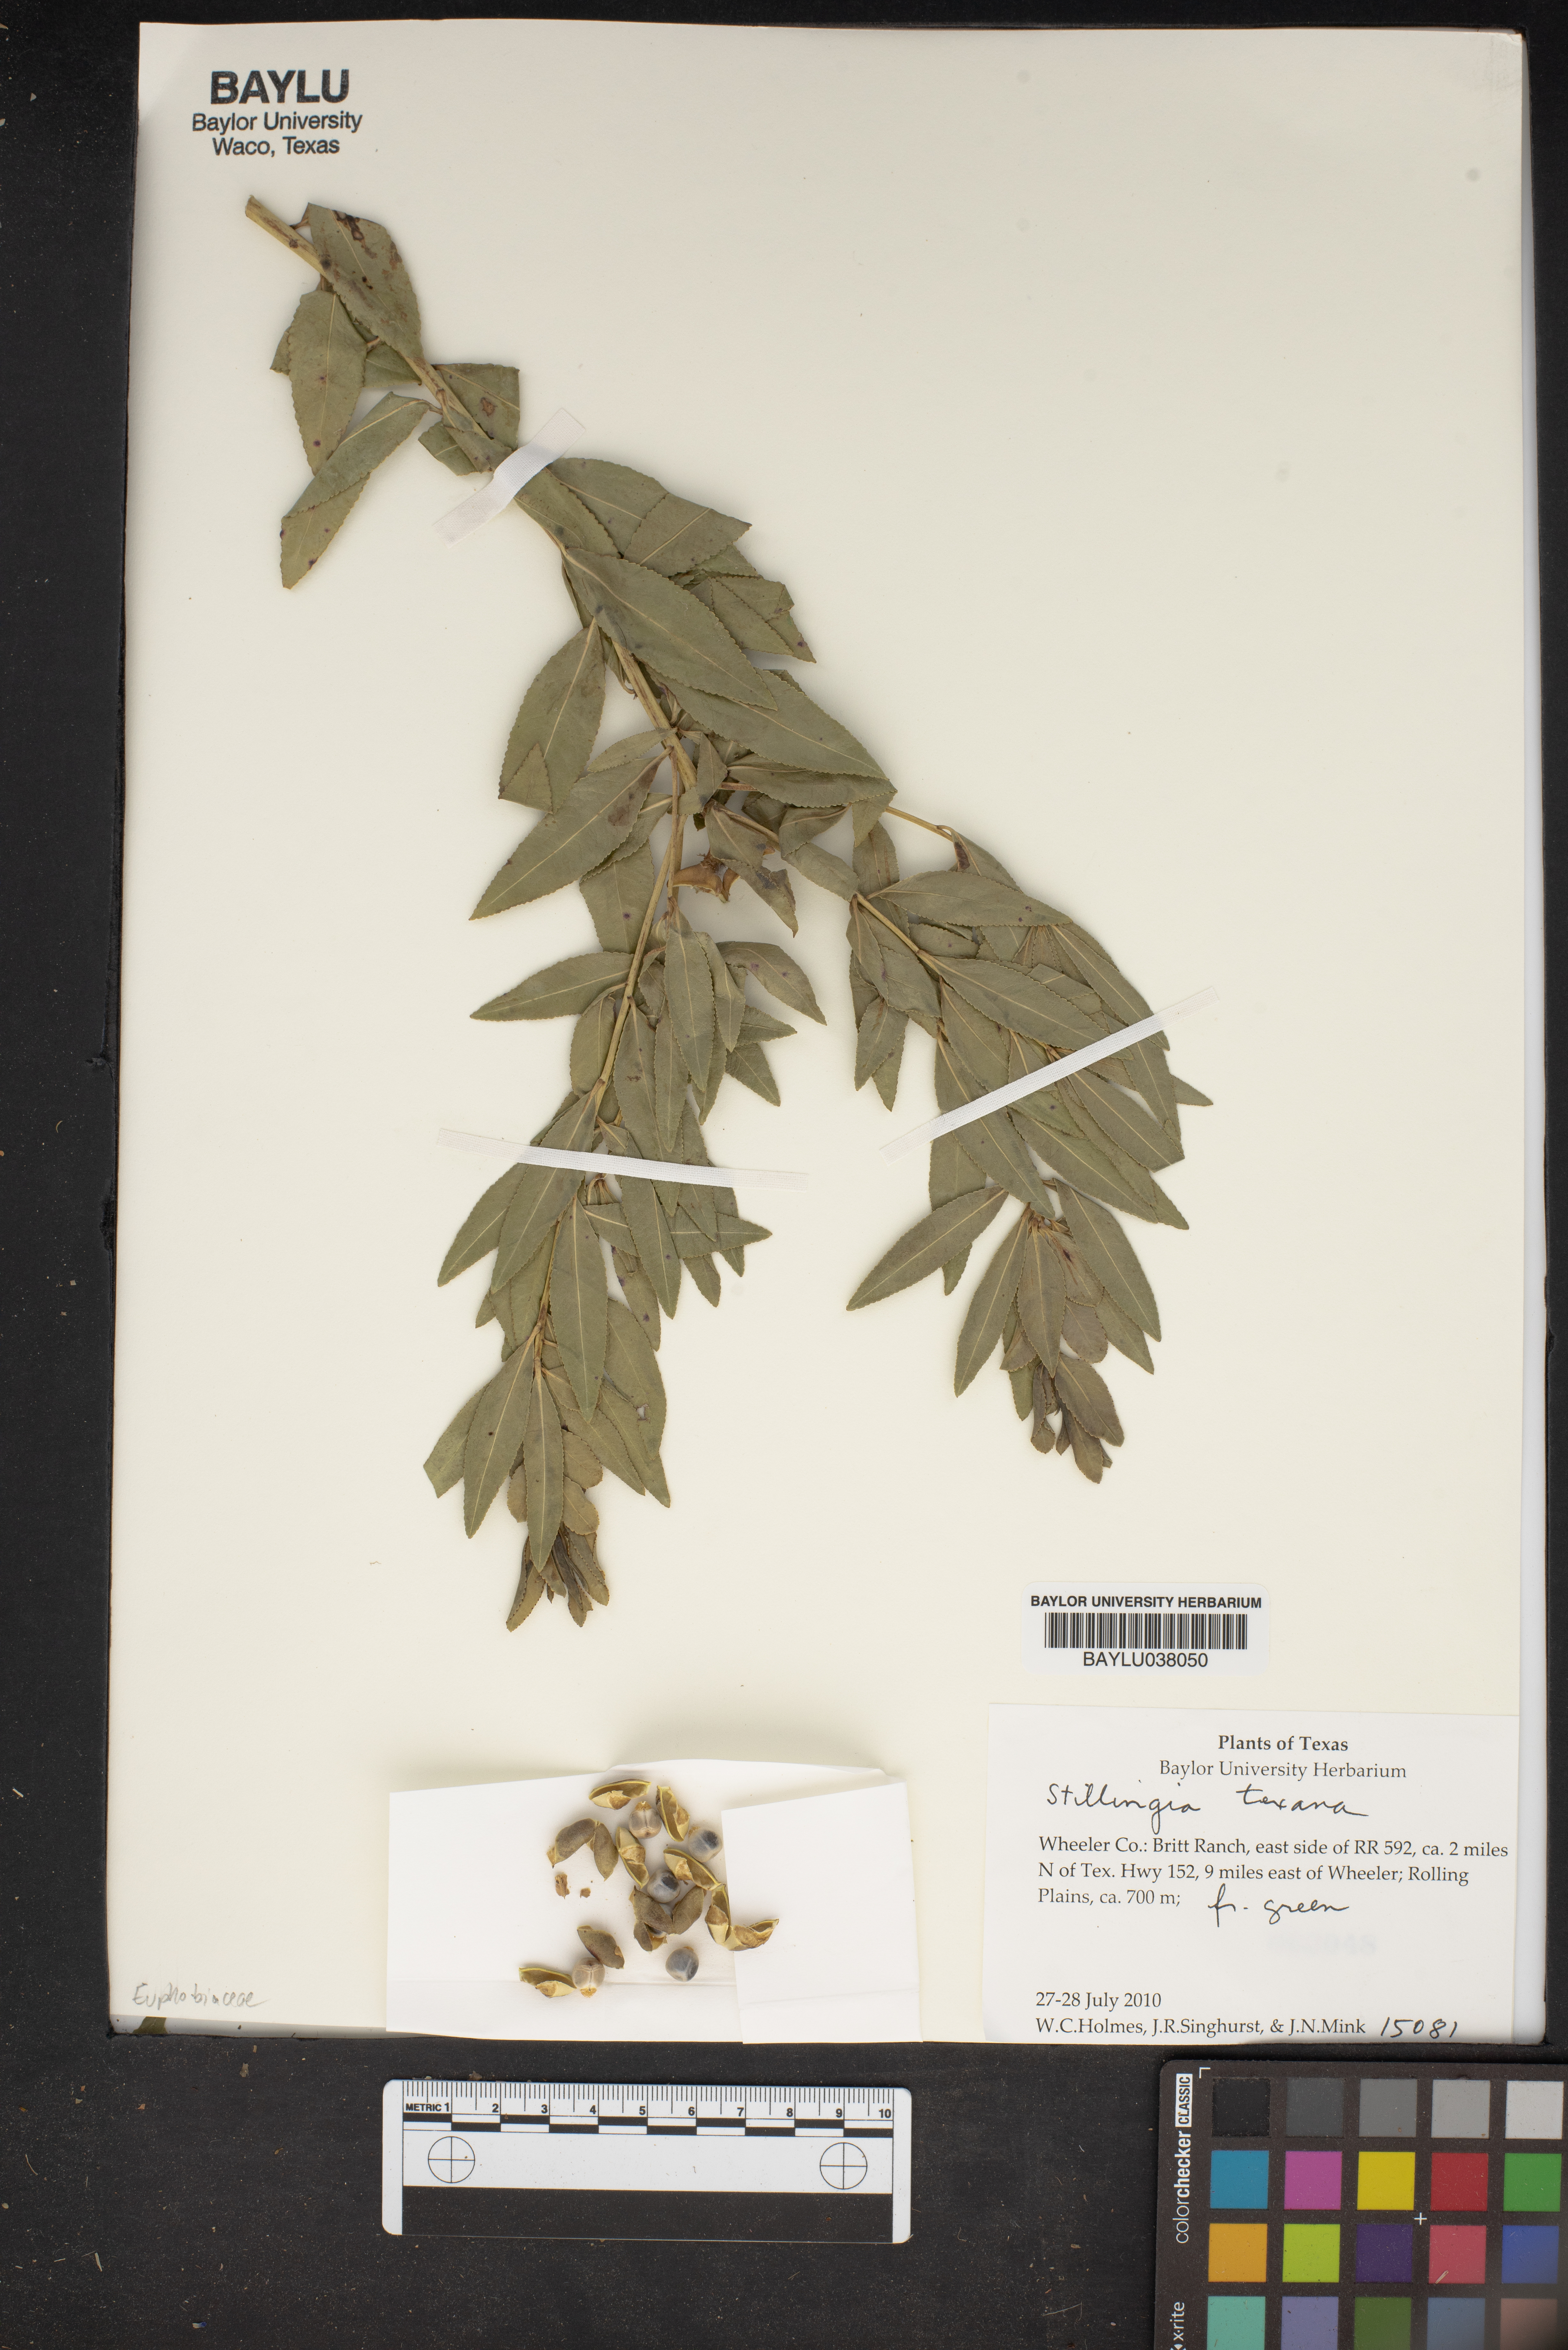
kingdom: Plantae
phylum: Tracheophyta
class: Magnoliopsida
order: Malpighiales
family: Euphorbiaceae
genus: Stillingia
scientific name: Stillingia texana
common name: Texas stillingia
